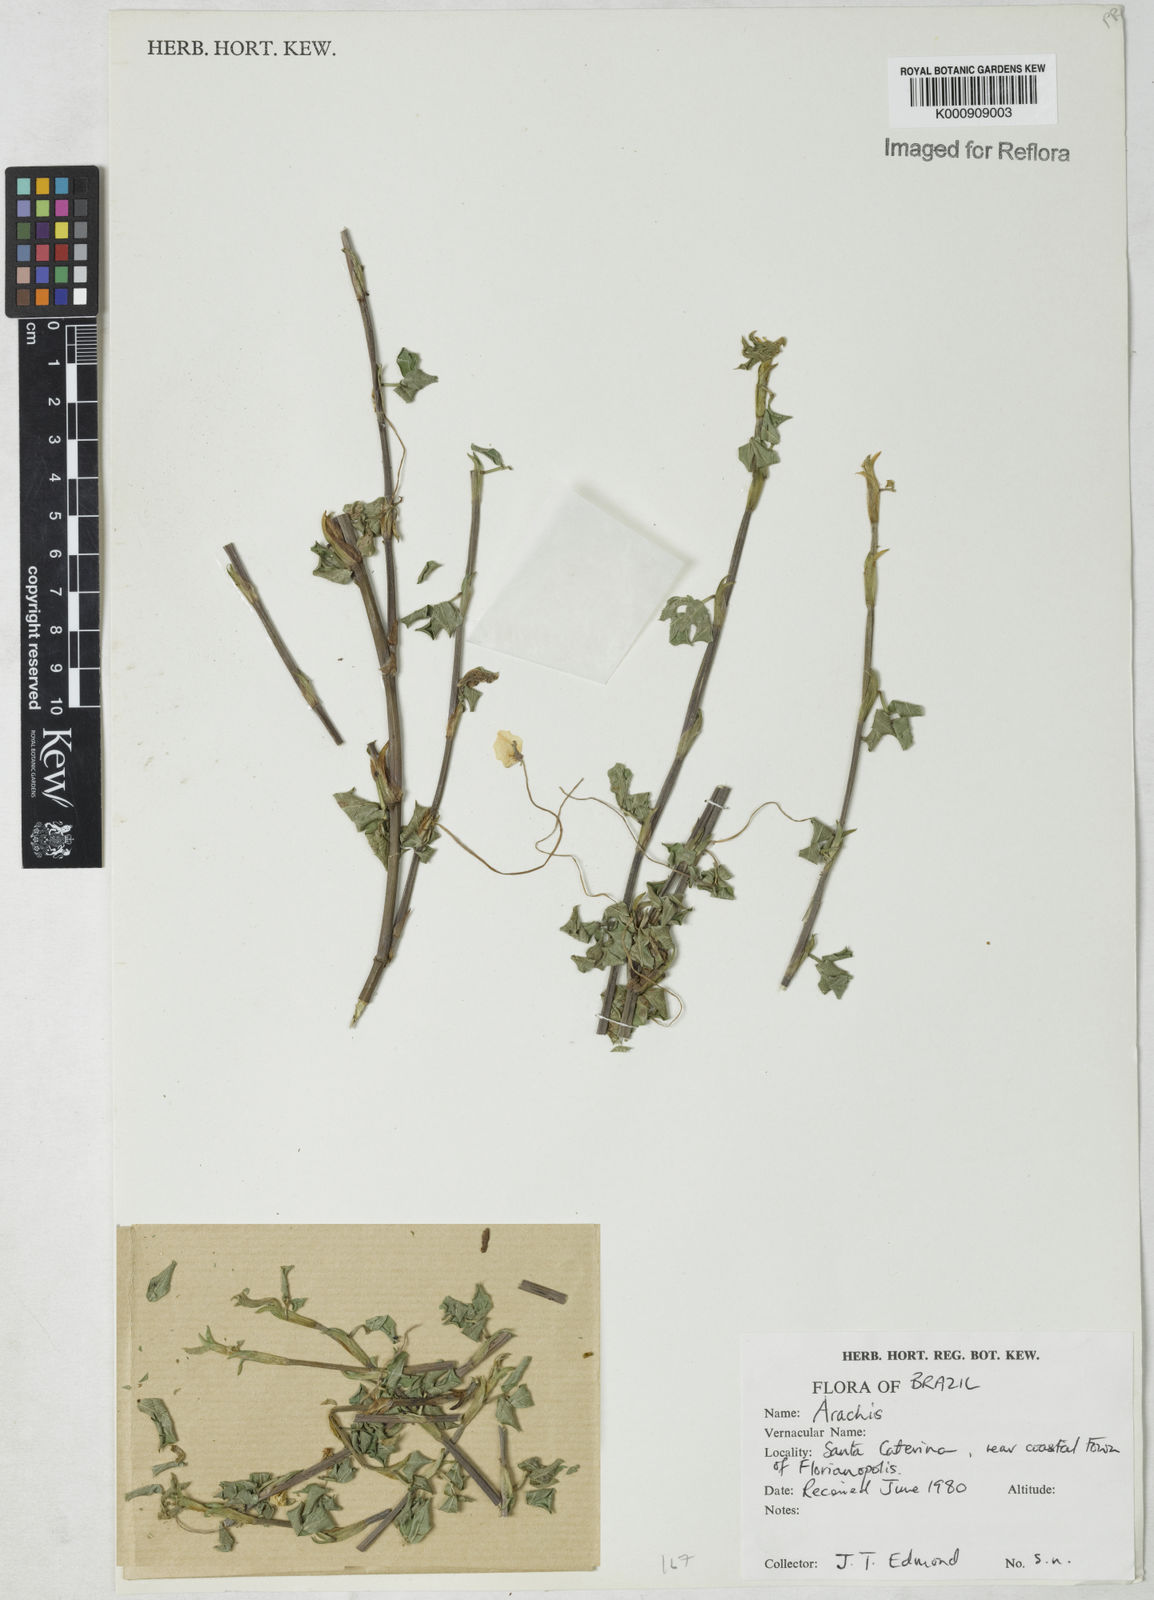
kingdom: Plantae
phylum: Tracheophyta
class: Magnoliopsida
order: Fabales
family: Fabaceae
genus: Arachis
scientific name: Arachis
